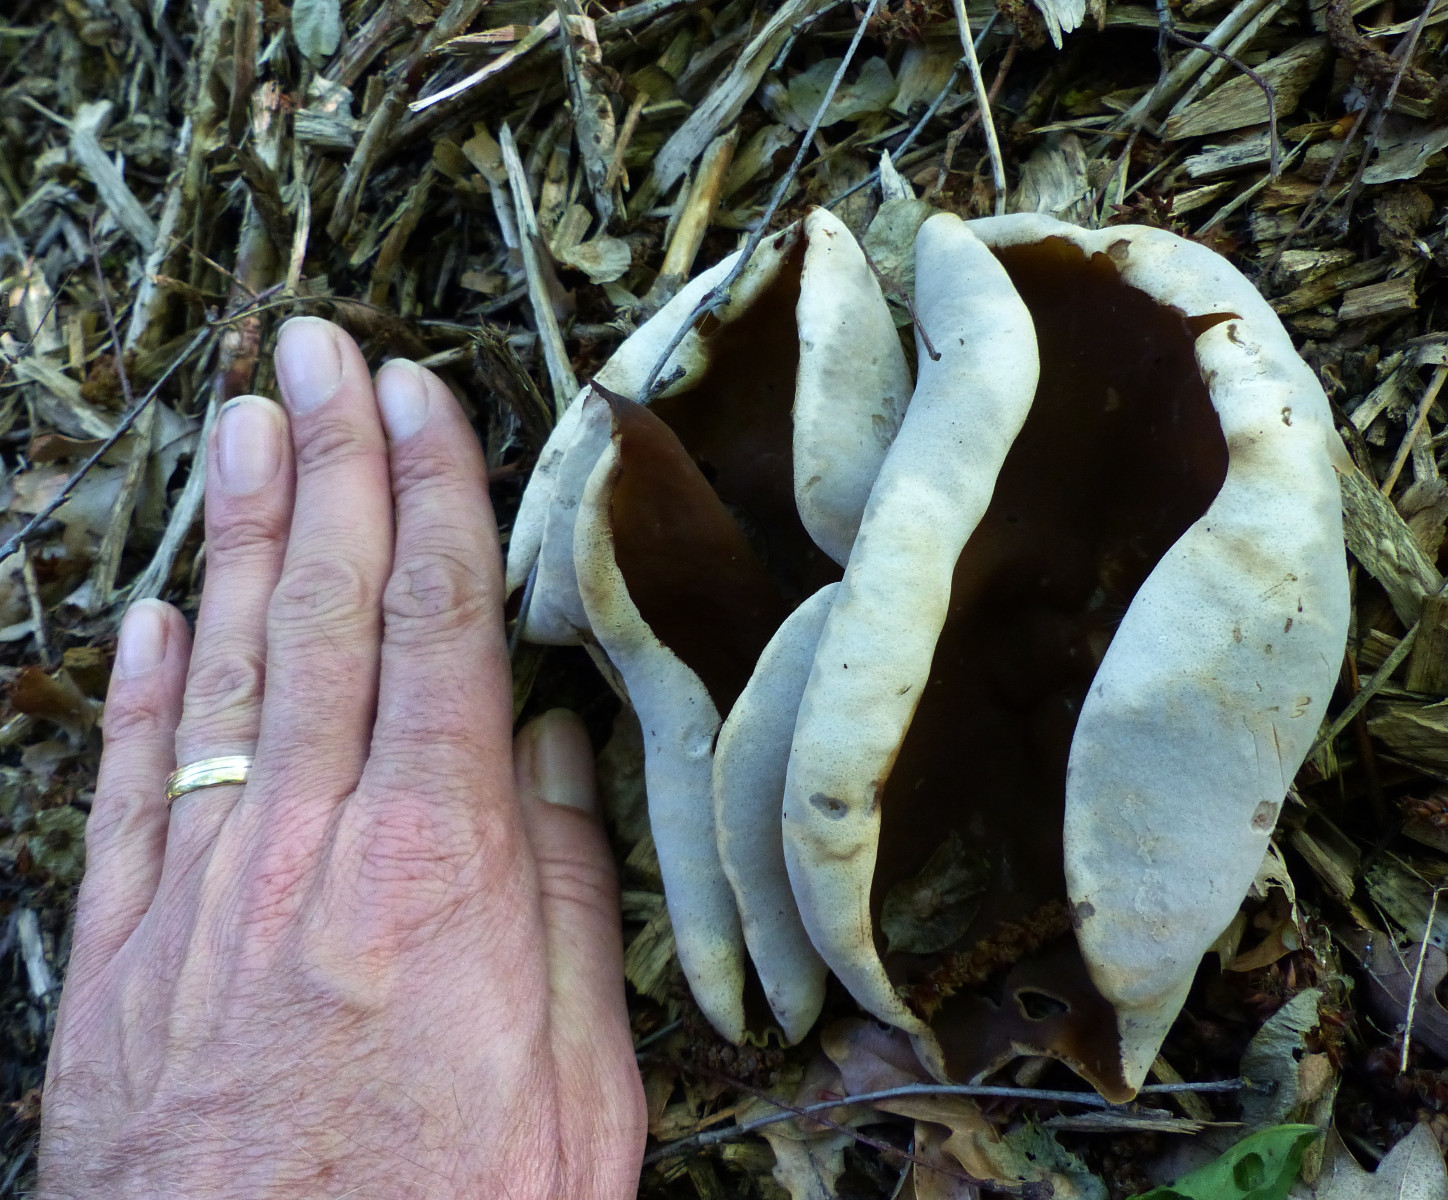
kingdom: Fungi
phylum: Ascomycota
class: Pezizomycetes
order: Pezizales
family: Pezizaceae
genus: Peziza
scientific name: Peziza
